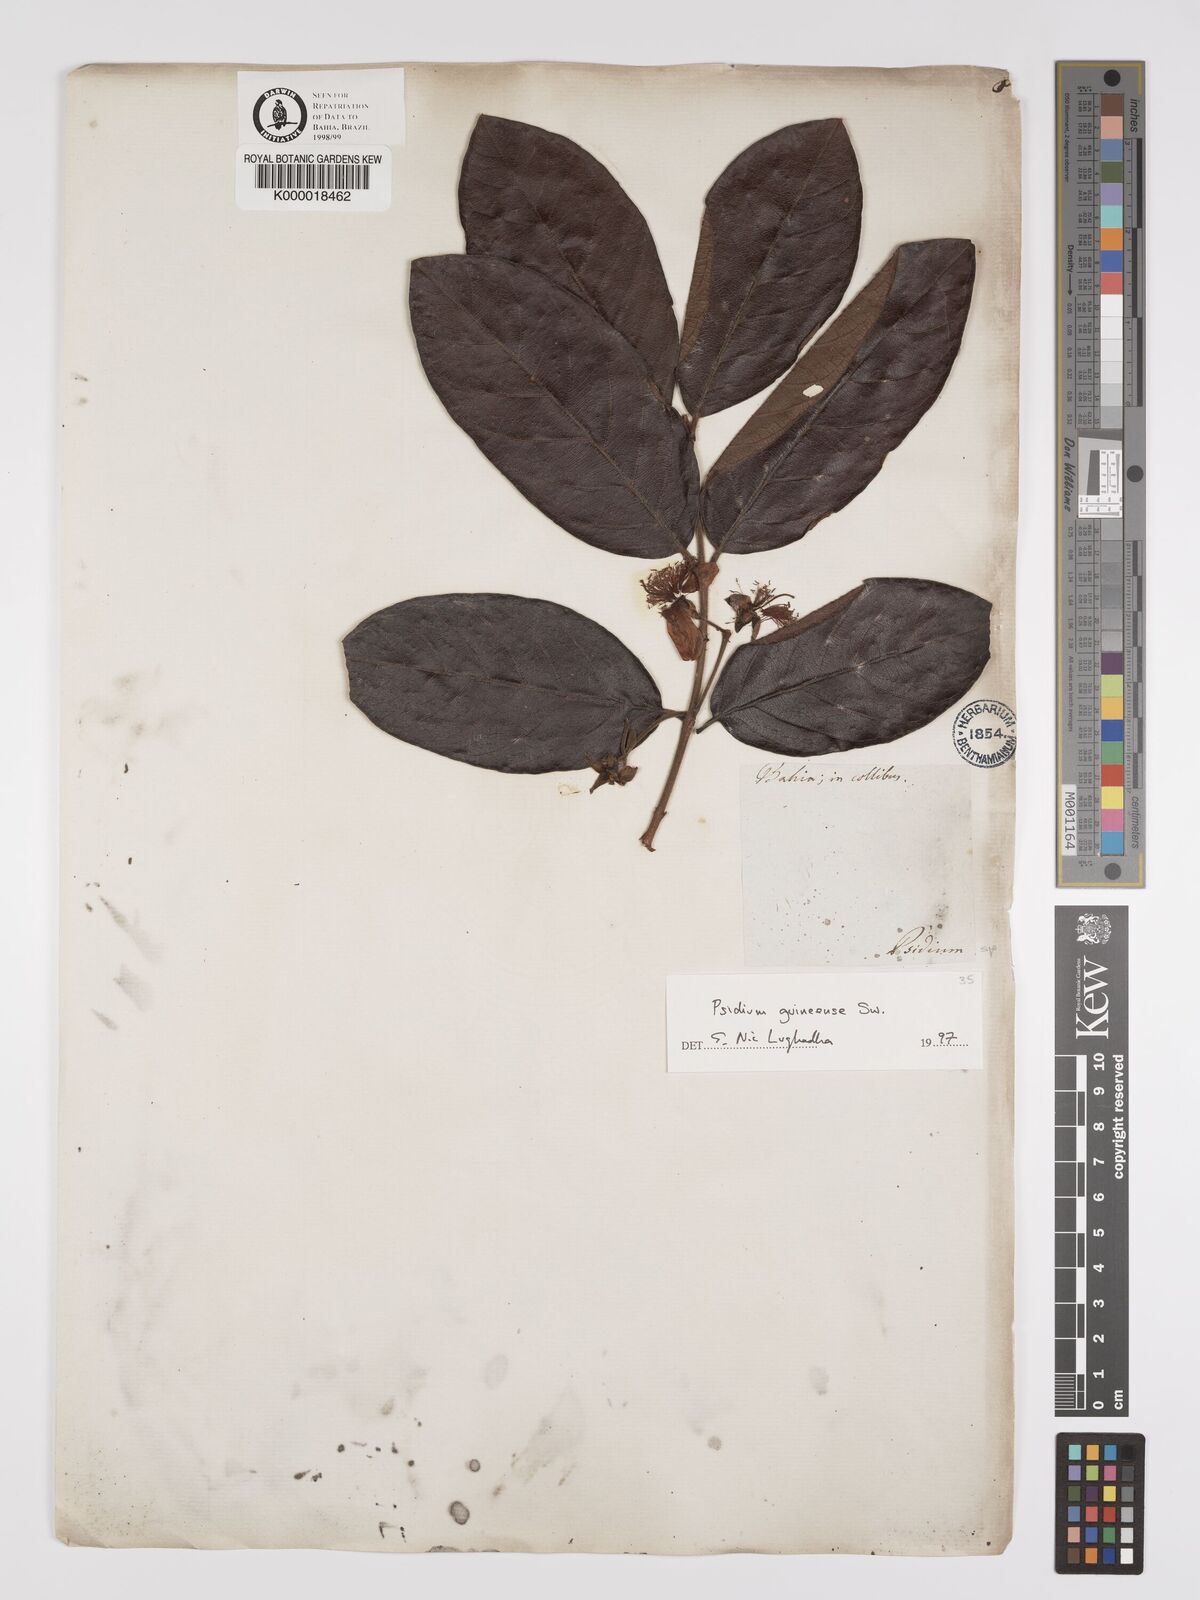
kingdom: Plantae
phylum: Tracheophyta
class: Magnoliopsida
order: Myrtales
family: Myrtaceae
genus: Psidium
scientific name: Psidium guineense
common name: Brazilian guava
